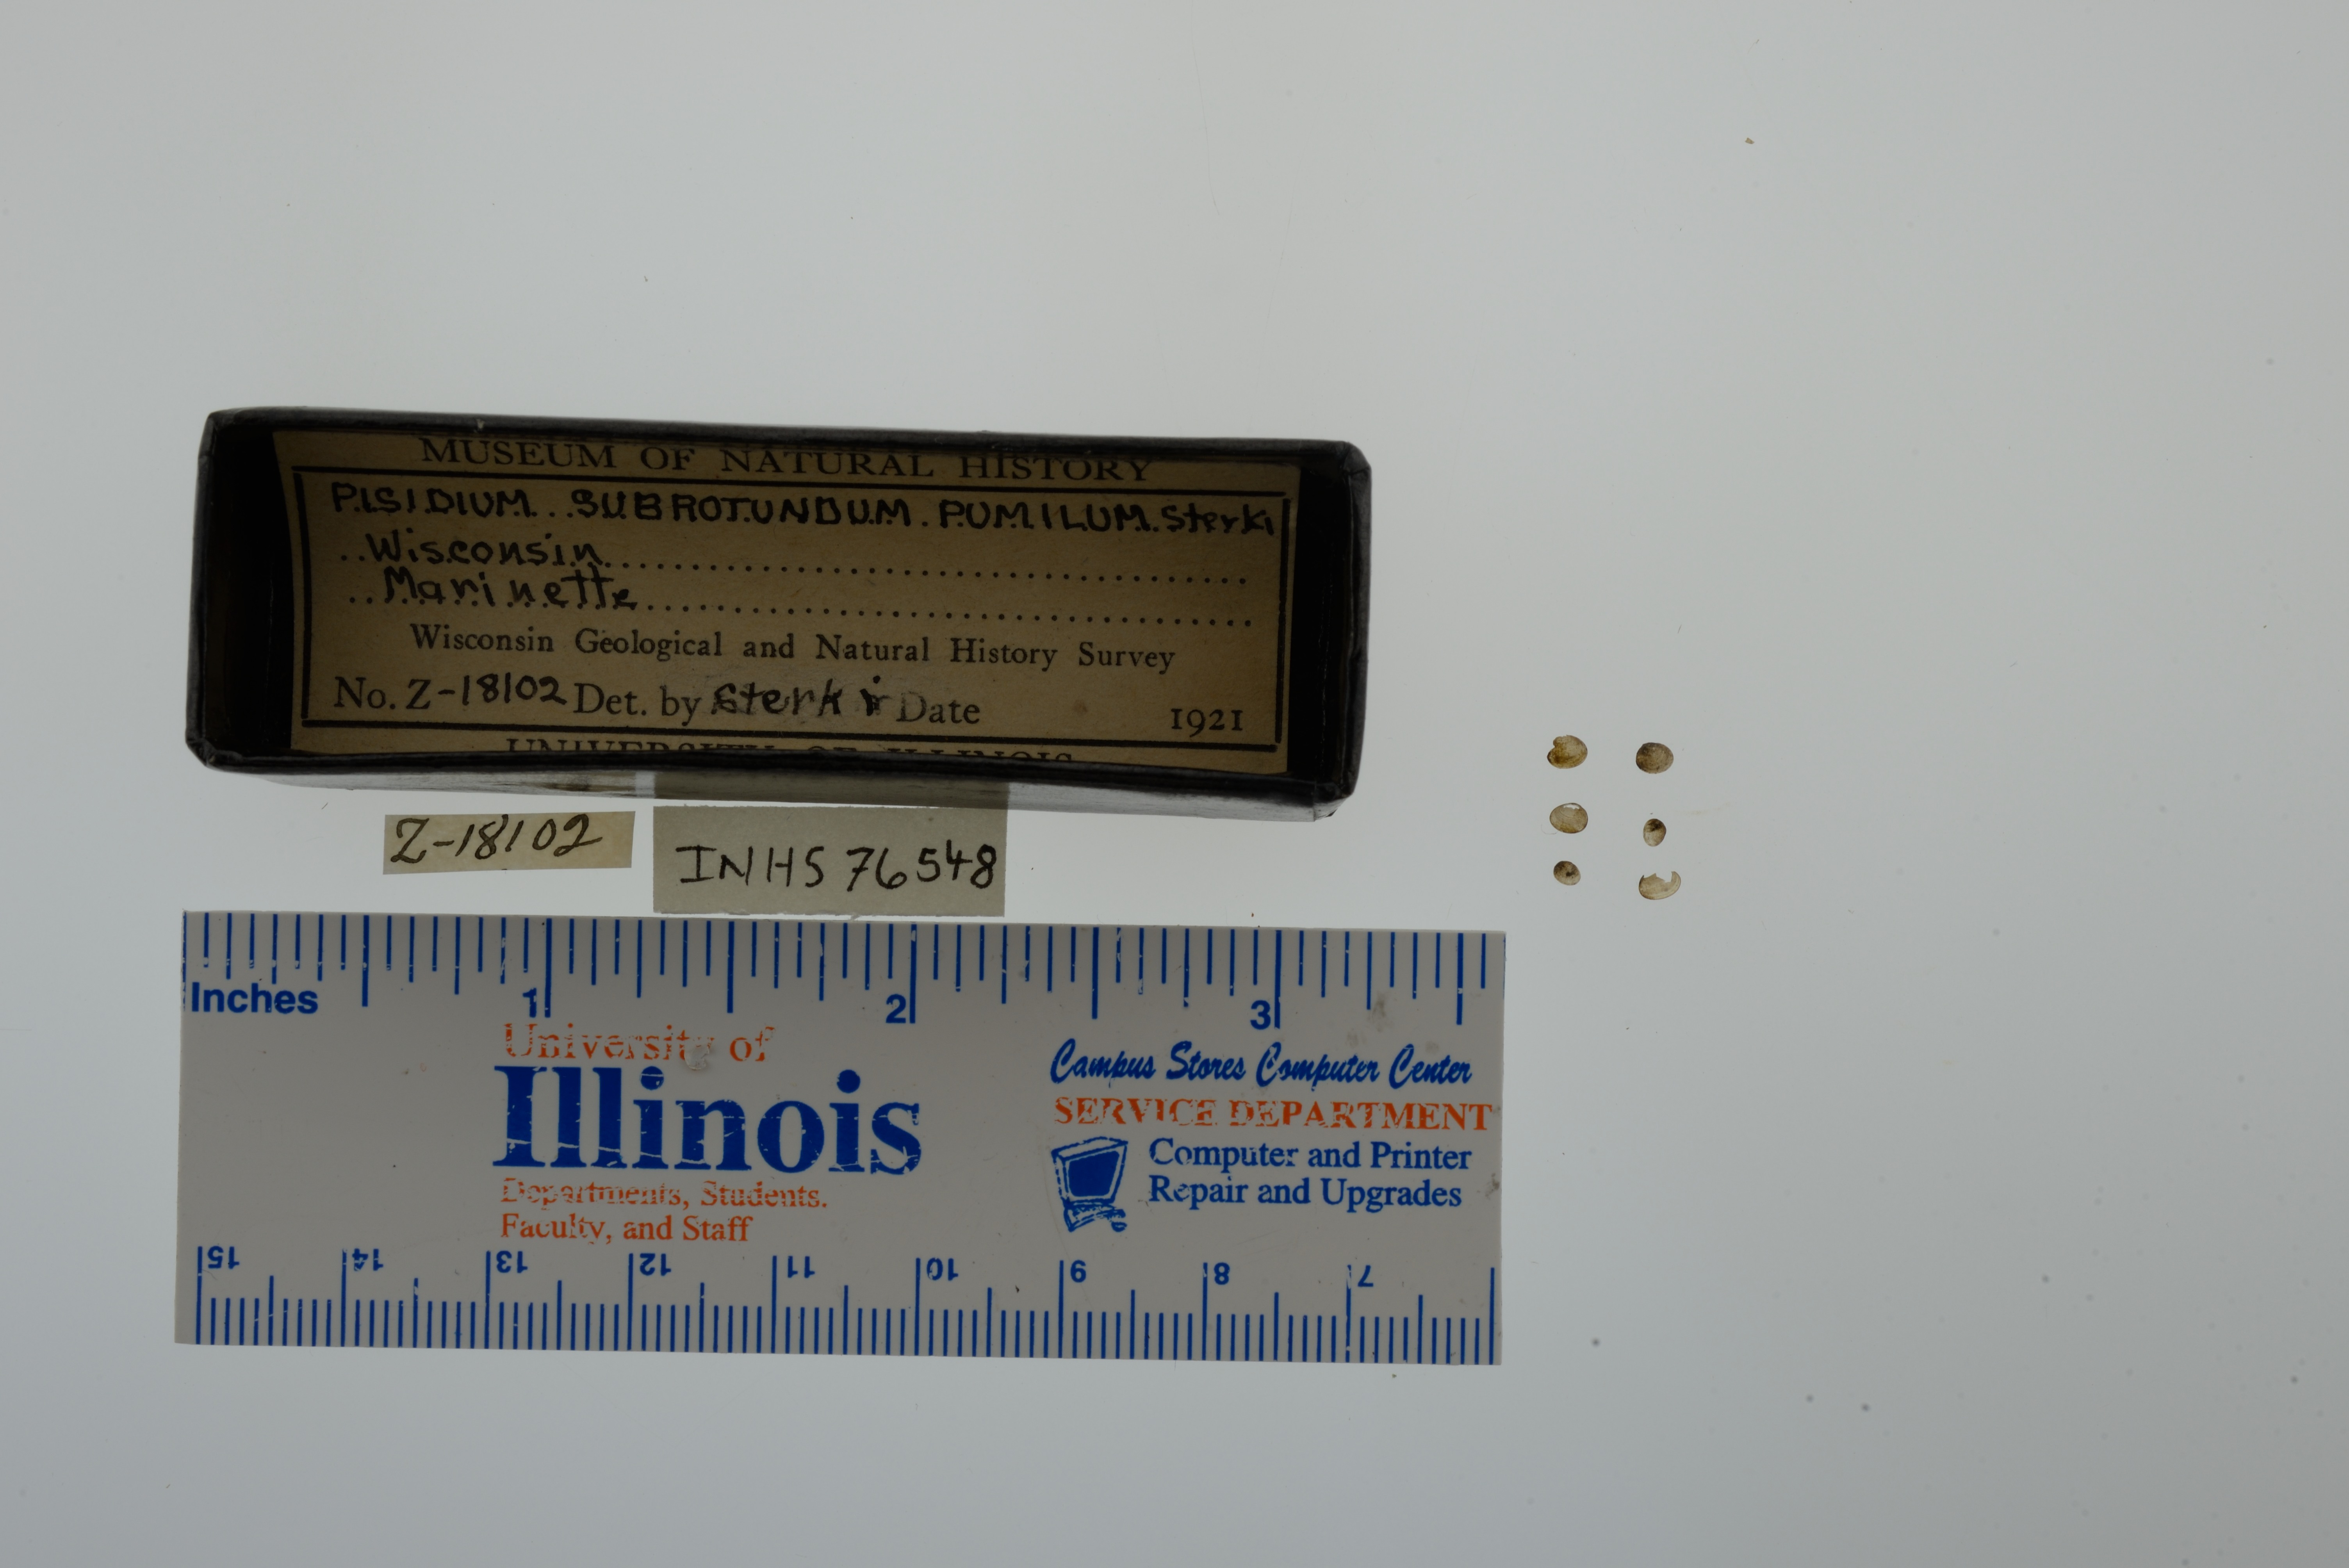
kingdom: Animalia
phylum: Mollusca
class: Bivalvia
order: Sphaeriida
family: Sphaeriidae
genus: Euglesa
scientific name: Euglesa casertana
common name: Caserta pea mussel
